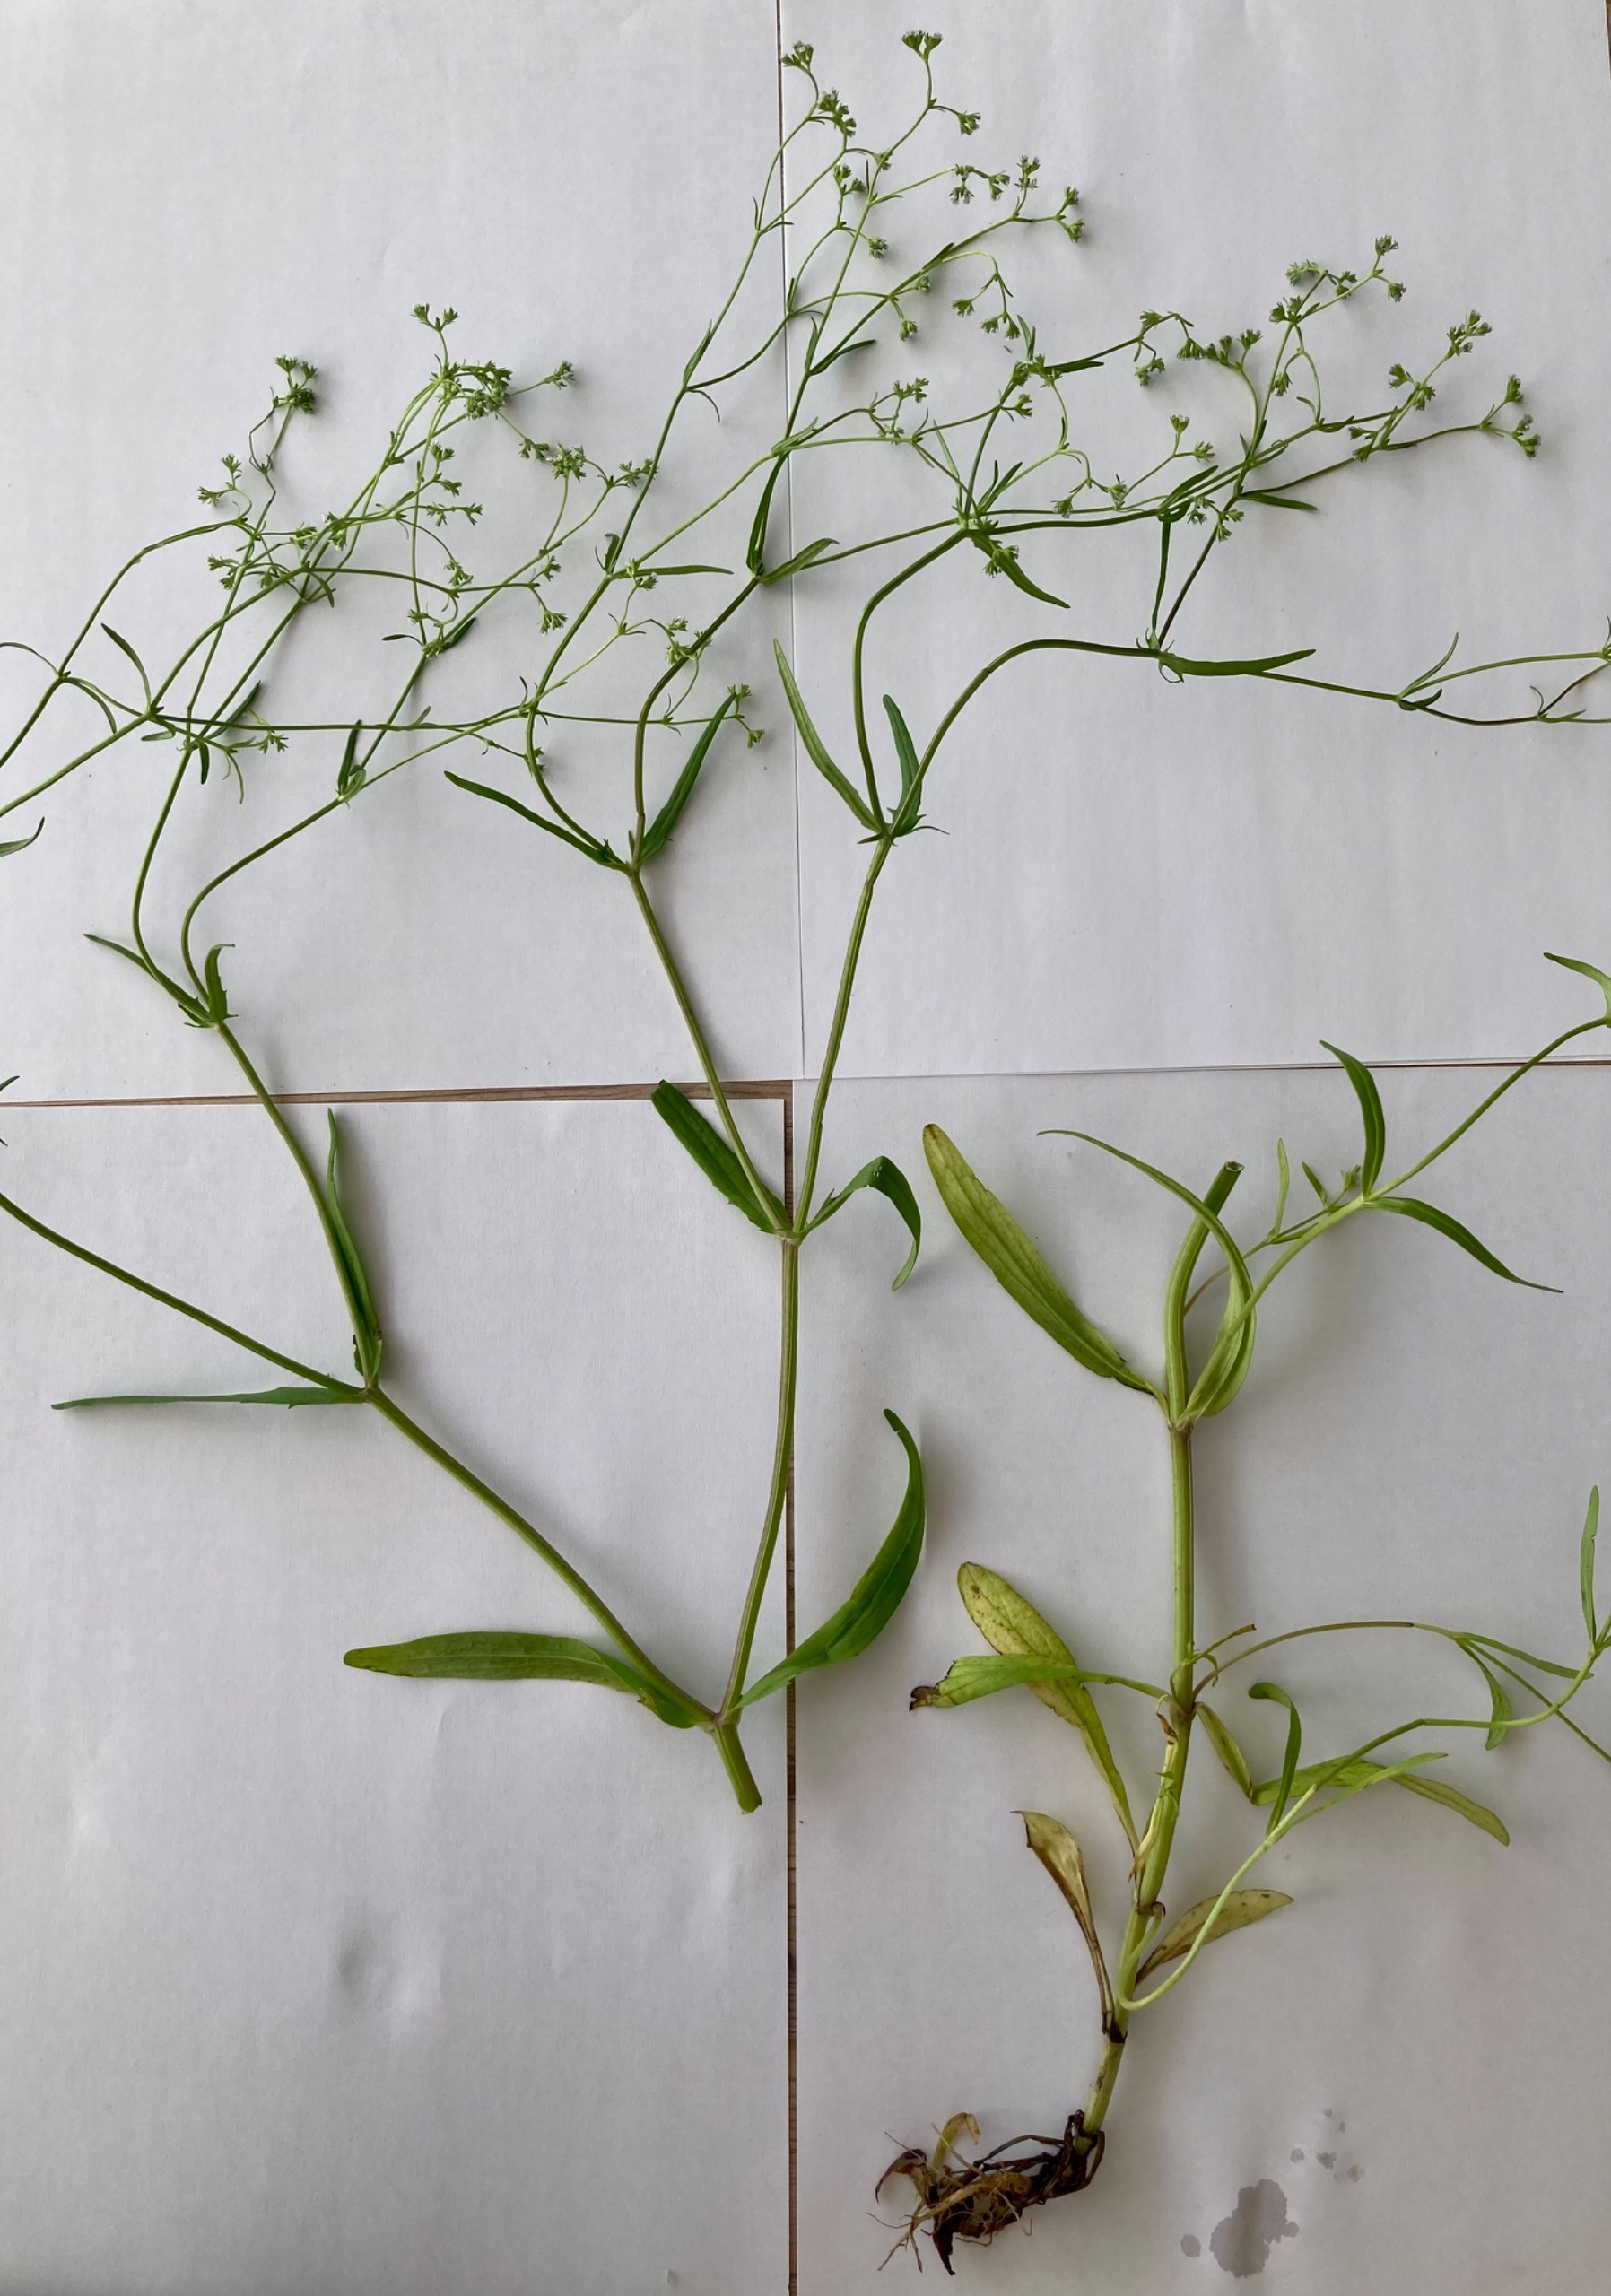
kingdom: Plantae
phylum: Tracheophyta
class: Magnoliopsida
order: Dipsacales
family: Caprifoliaceae
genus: Valerianella
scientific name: Valerianella dentata
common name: Tandbægret vårsalat
